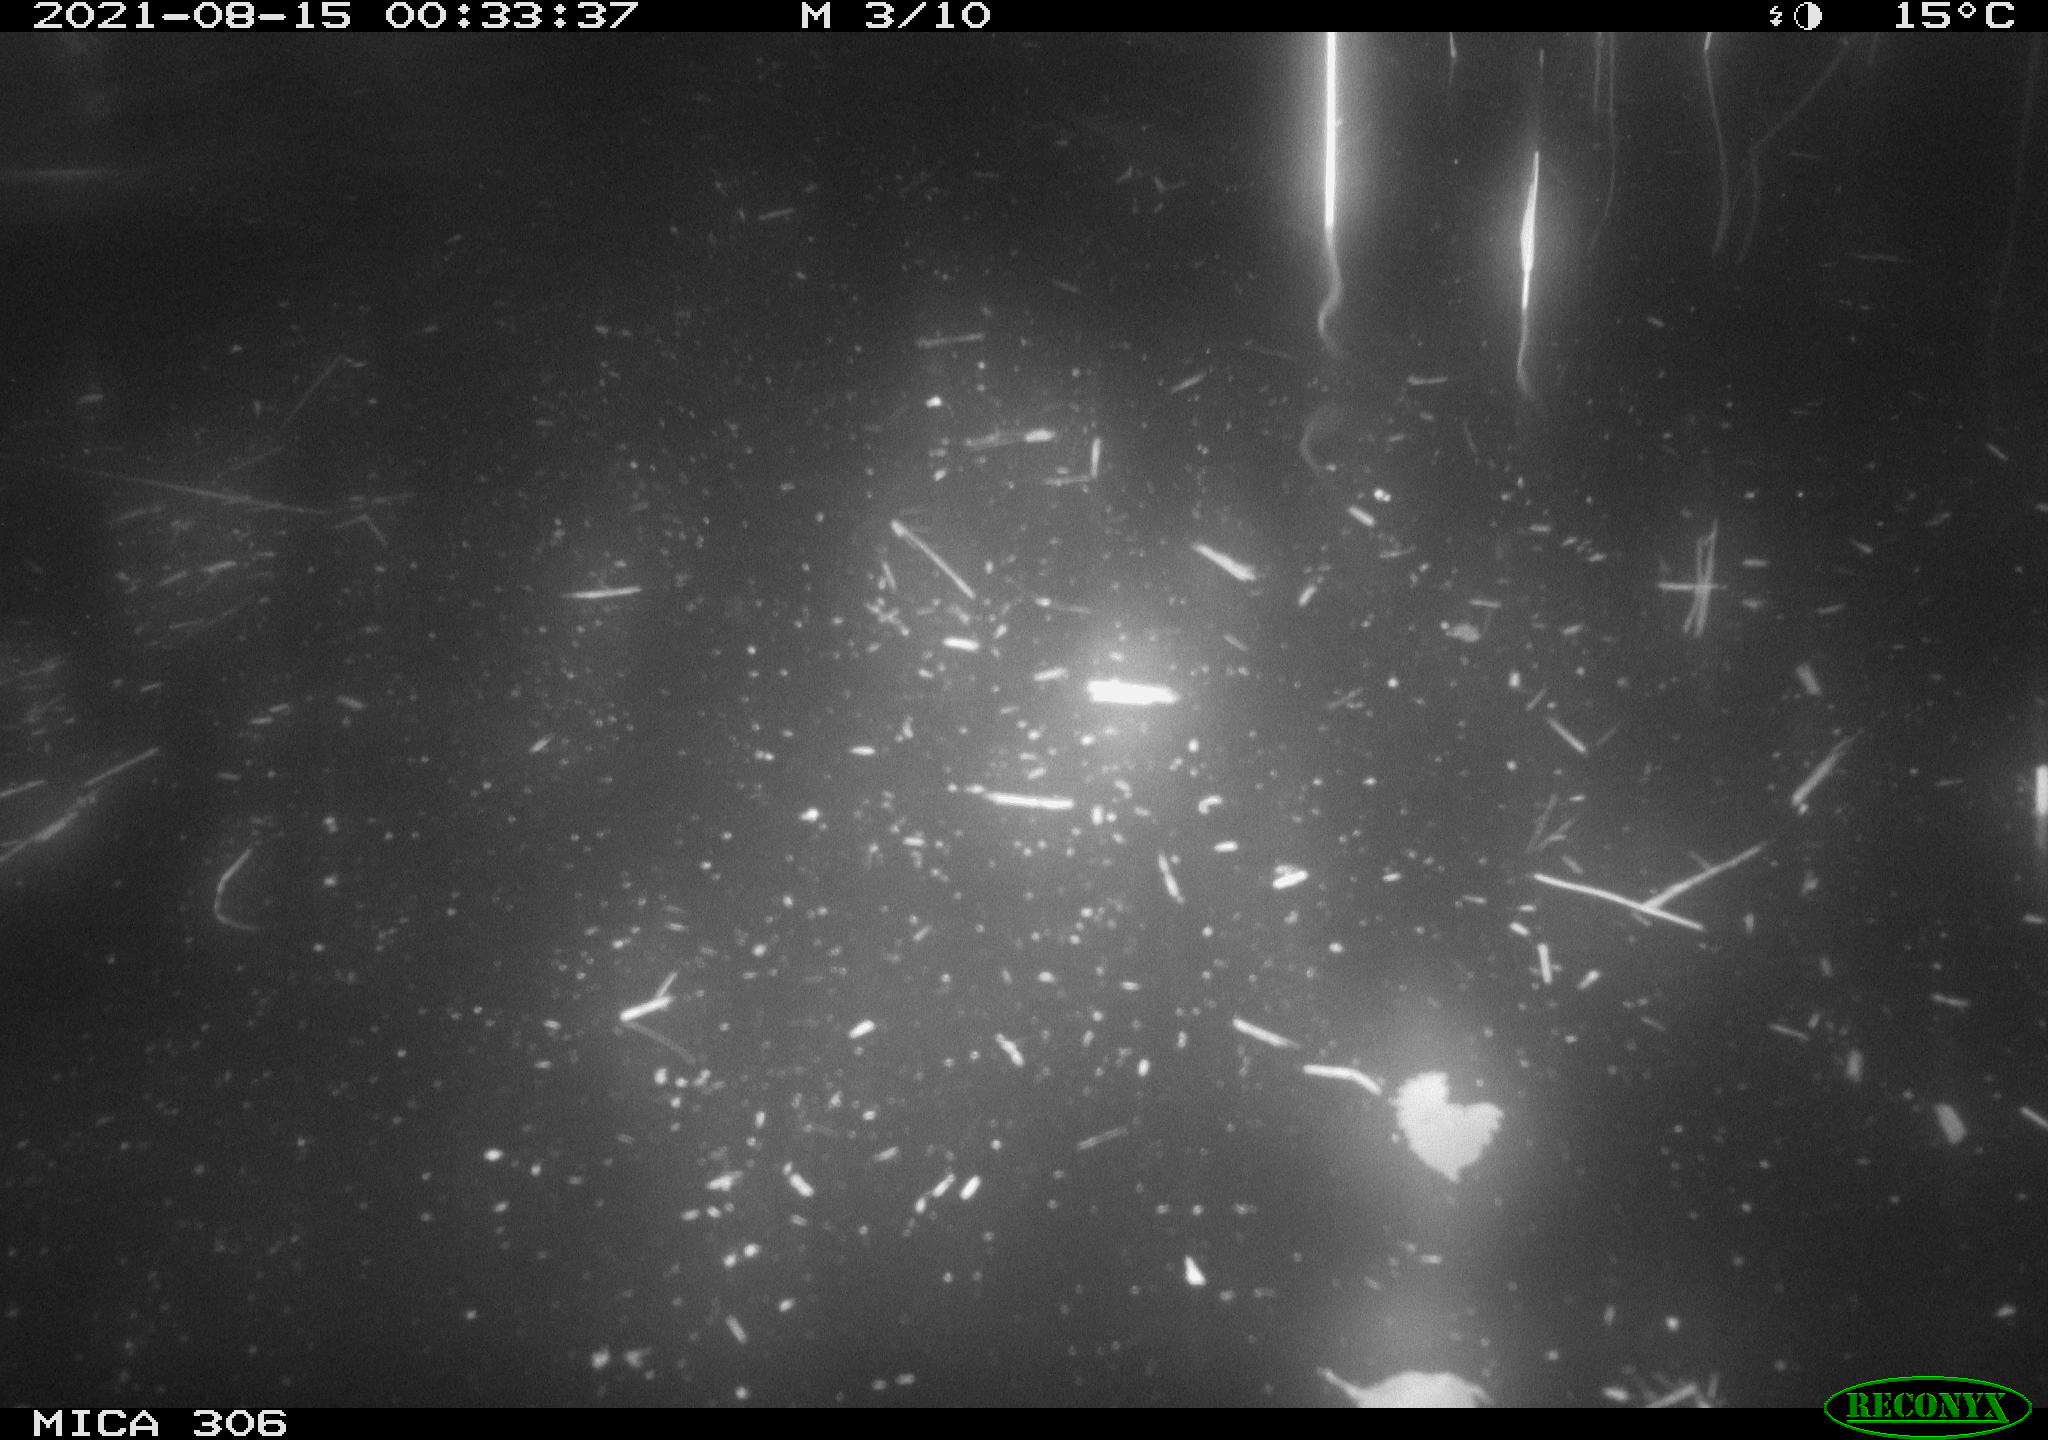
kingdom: Animalia
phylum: Chordata
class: Mammalia
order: Rodentia
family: Cricetidae
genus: Ondatra
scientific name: Ondatra zibethicus
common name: Muskrat
